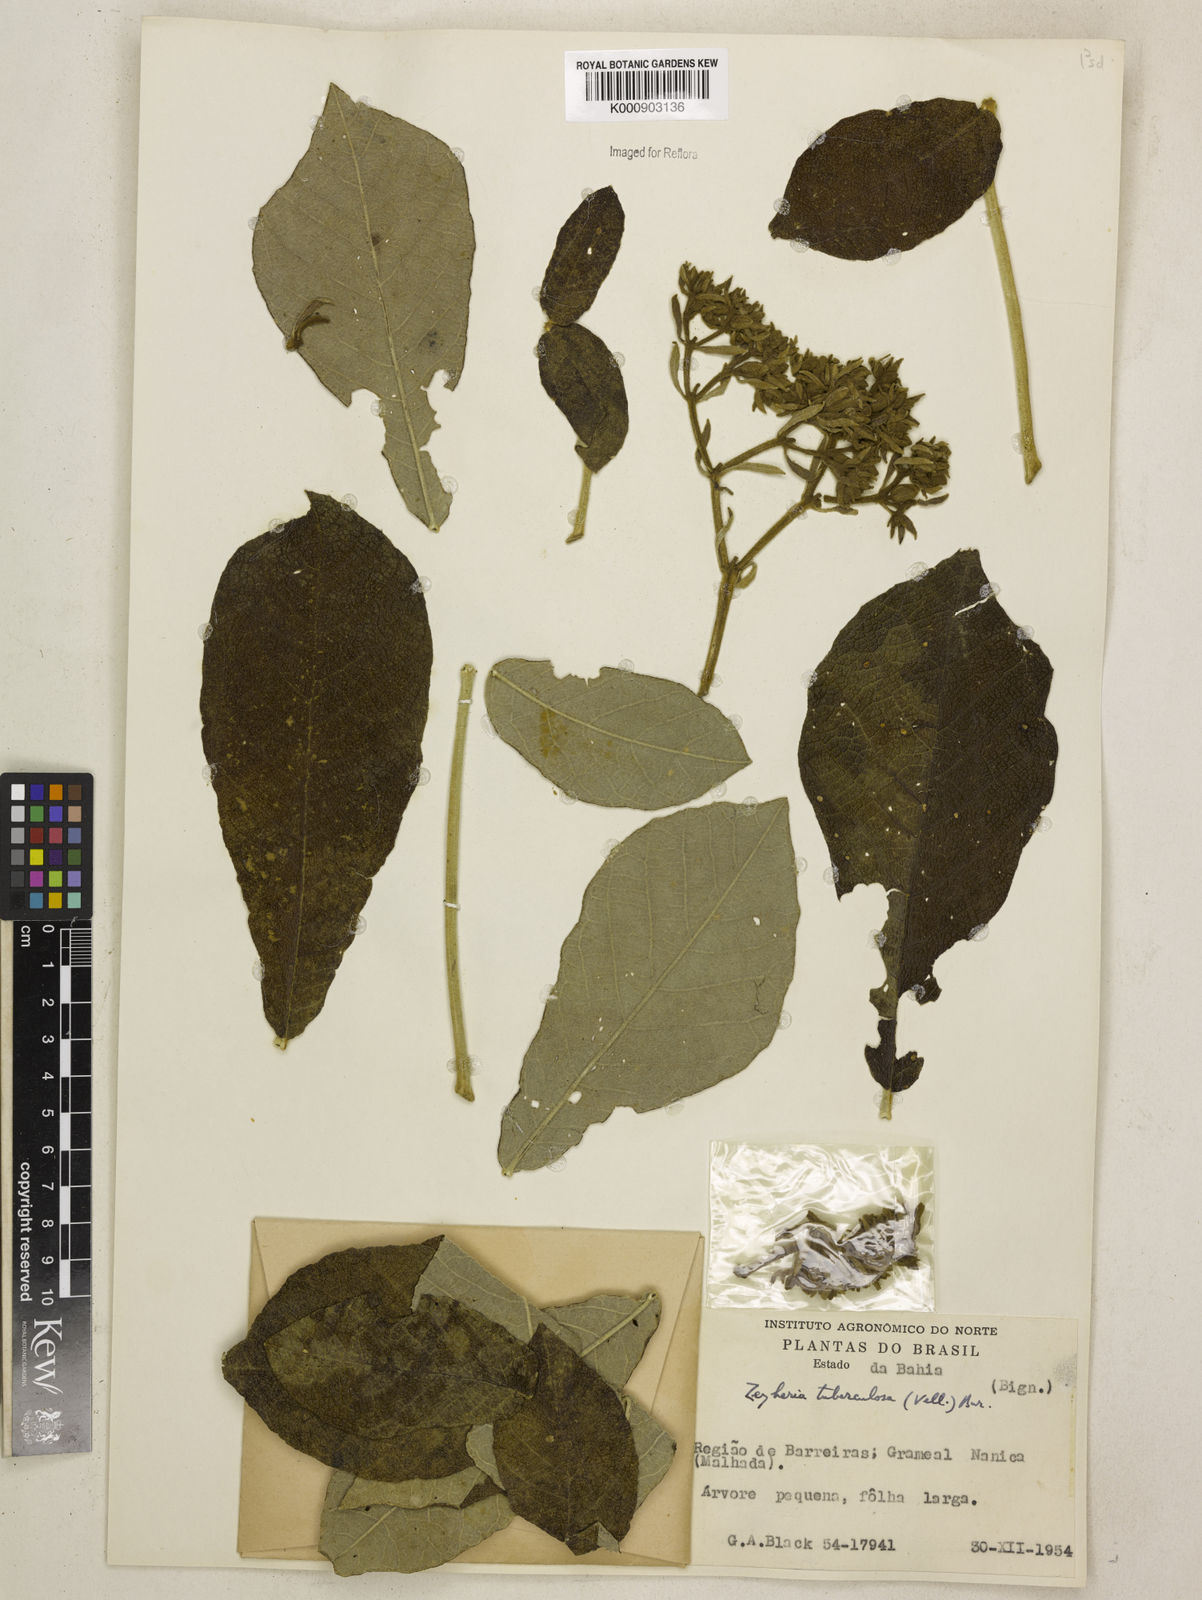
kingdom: Plantae
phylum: Tracheophyta
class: Magnoliopsida
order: Lamiales
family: Bignoniaceae
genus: Zeyheria
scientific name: Zeyheria
